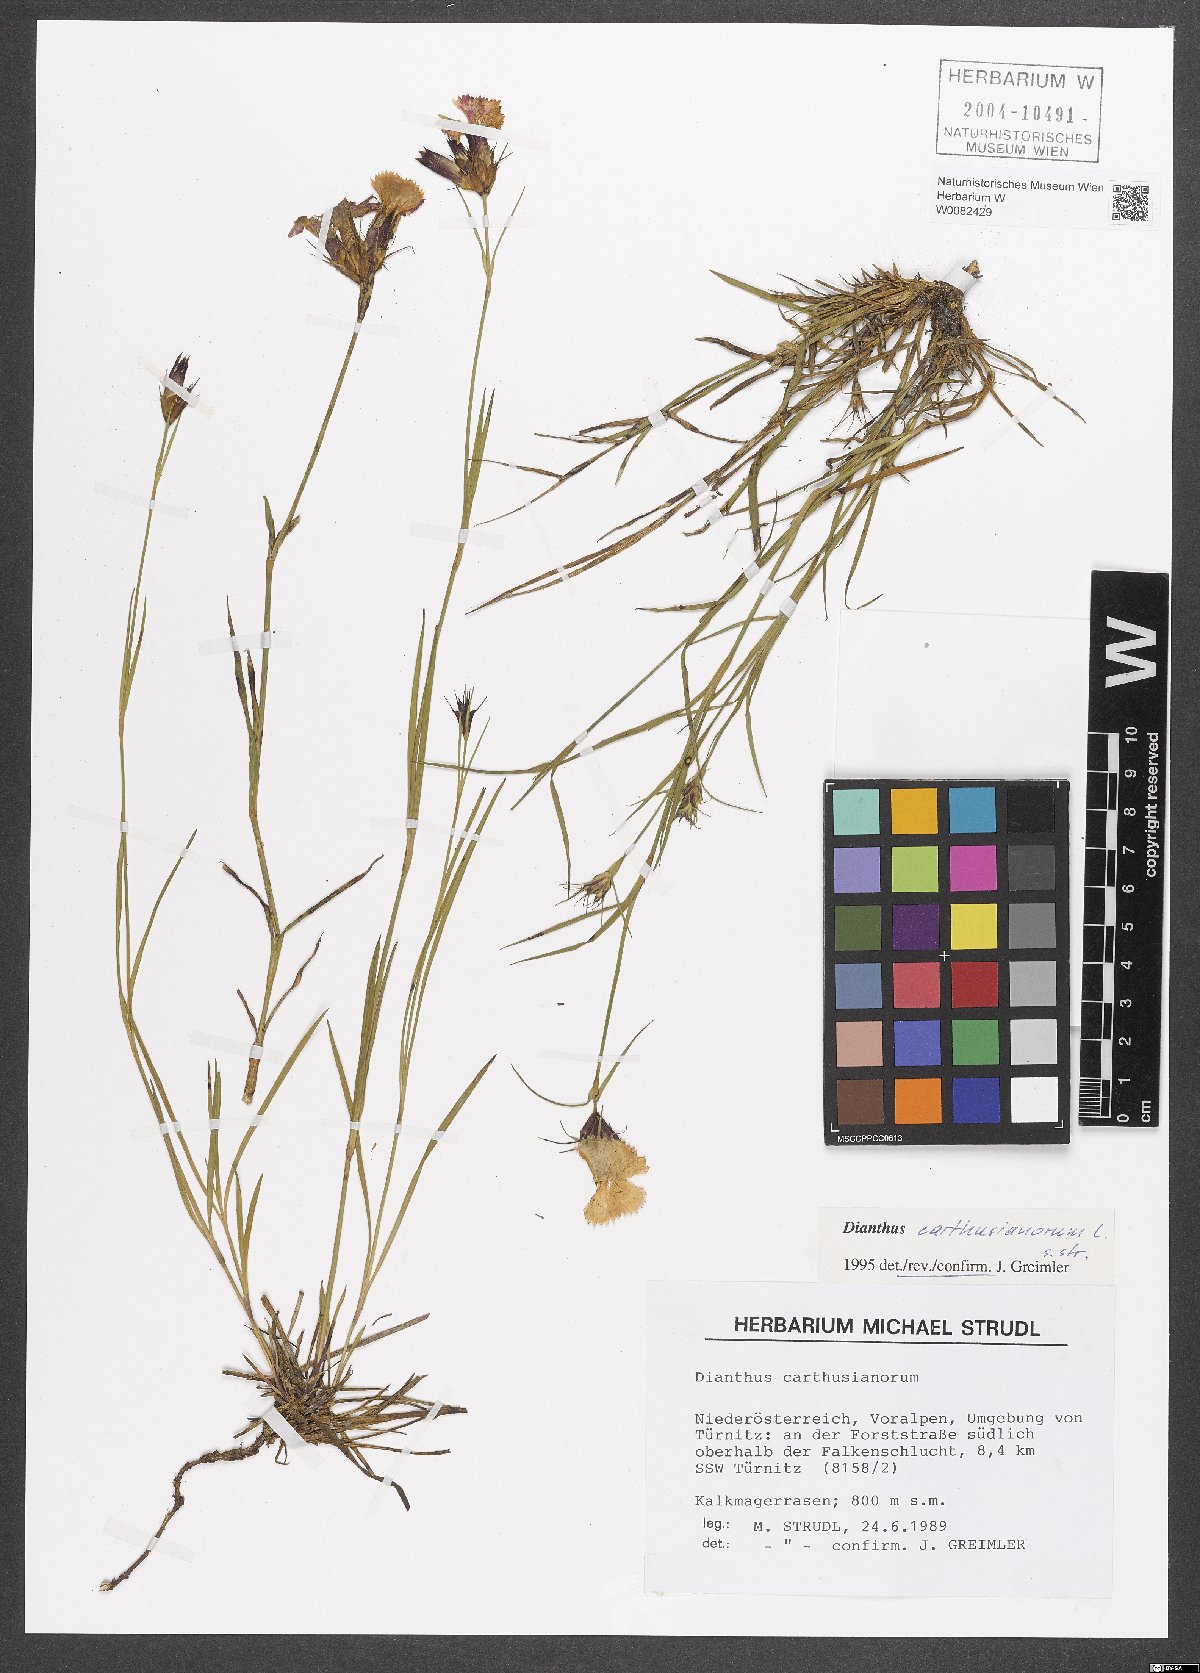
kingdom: Plantae
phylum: Tracheophyta
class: Magnoliopsida
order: Caryophyllales
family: Caryophyllaceae
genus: Dianthus
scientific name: Dianthus carthusianorum
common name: Carthusian pink
